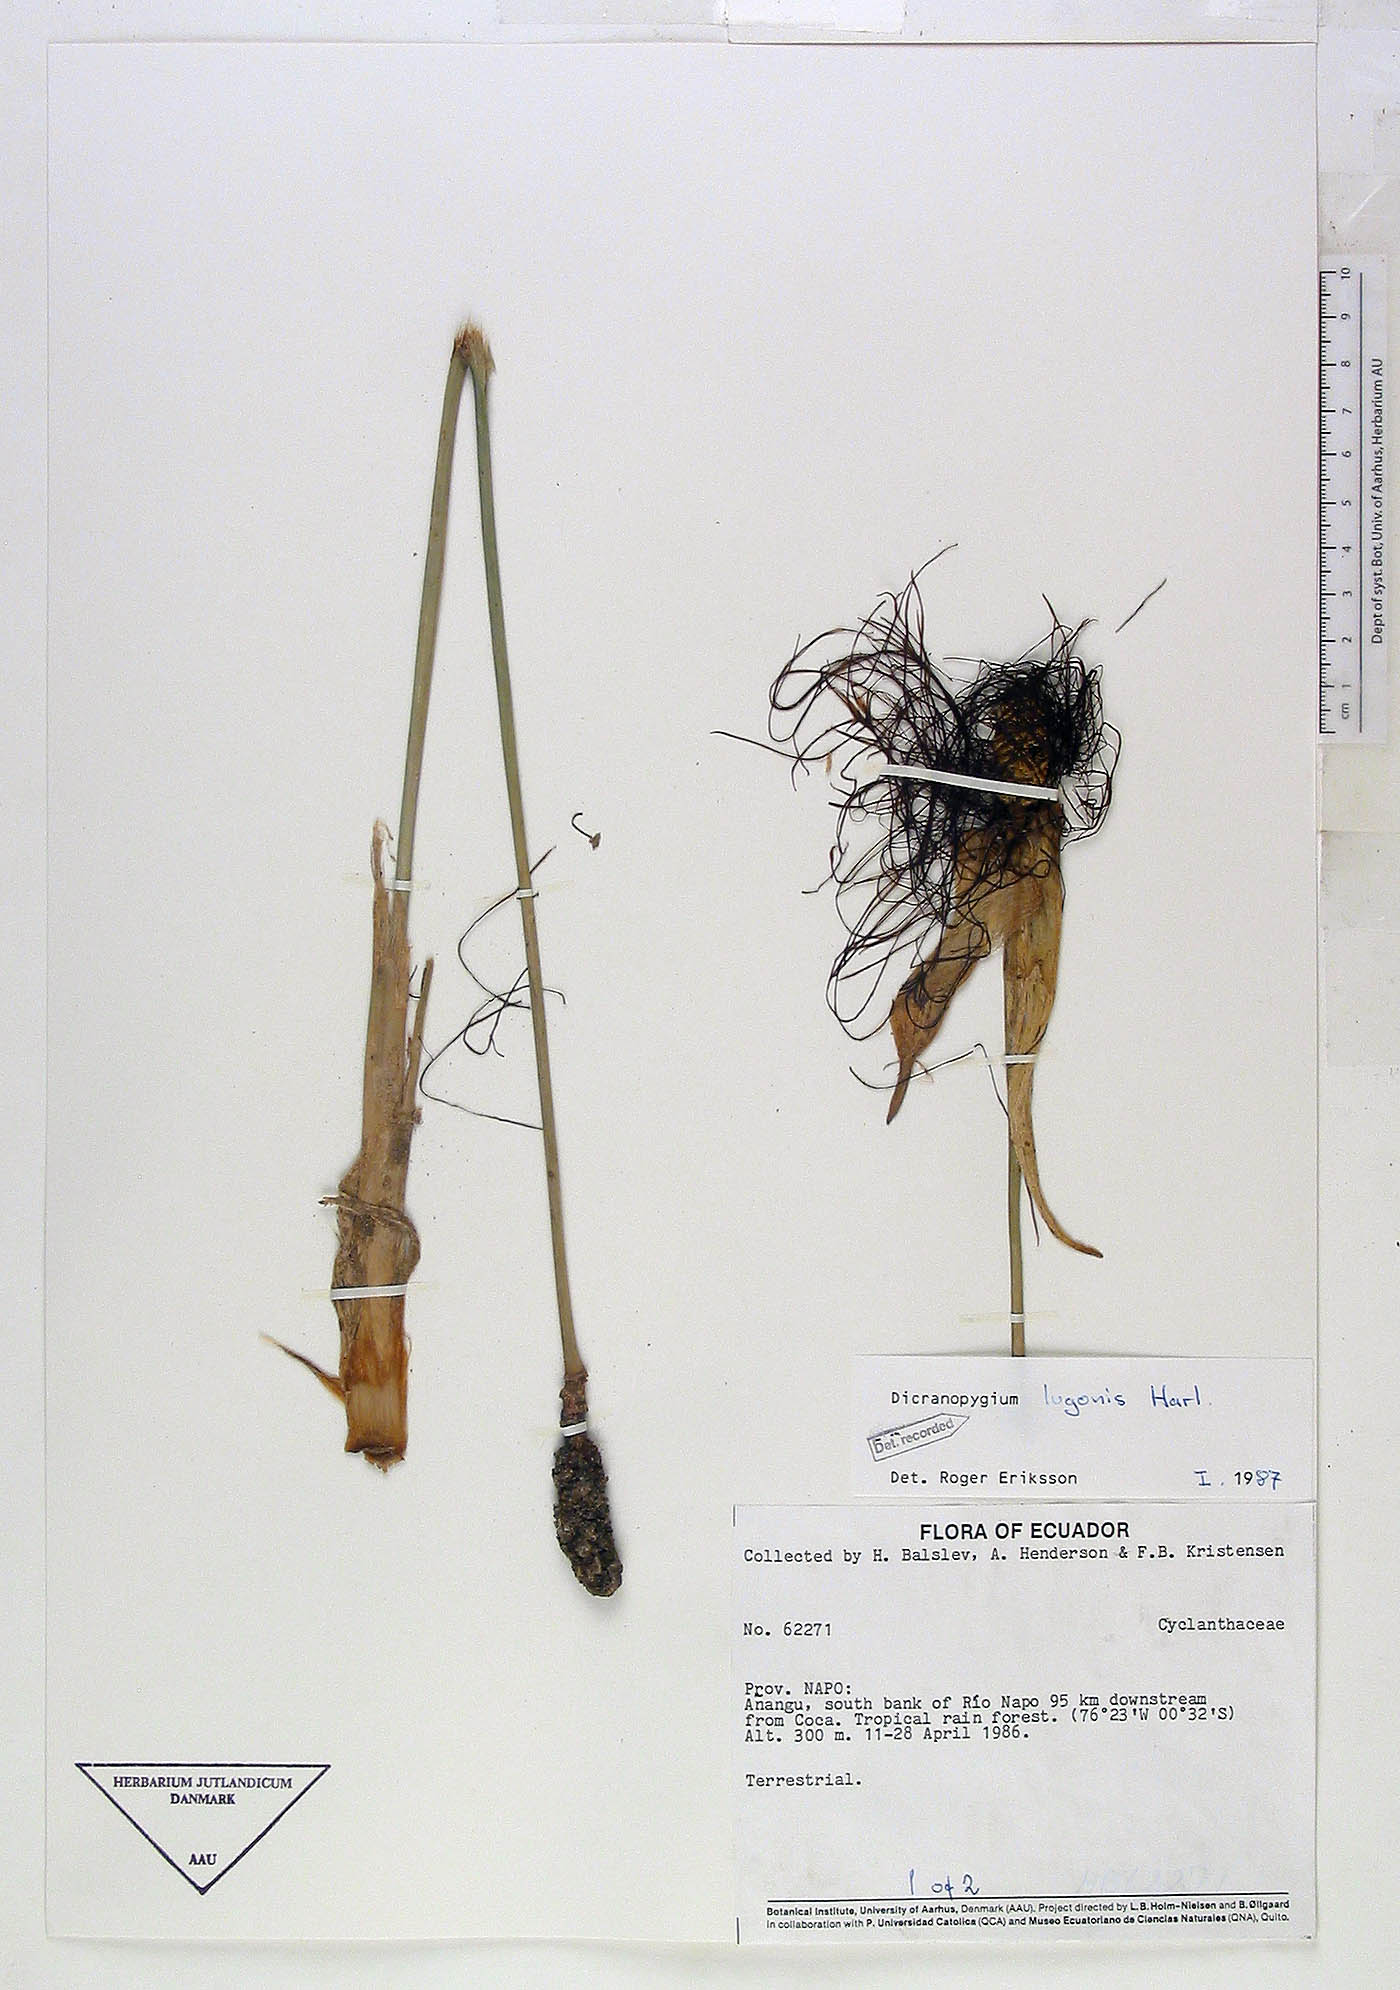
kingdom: Plantae
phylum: Tracheophyta
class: Liliopsida
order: Pandanales
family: Cyclanthaceae
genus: Dicranopygium
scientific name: Dicranopygium lugonis
